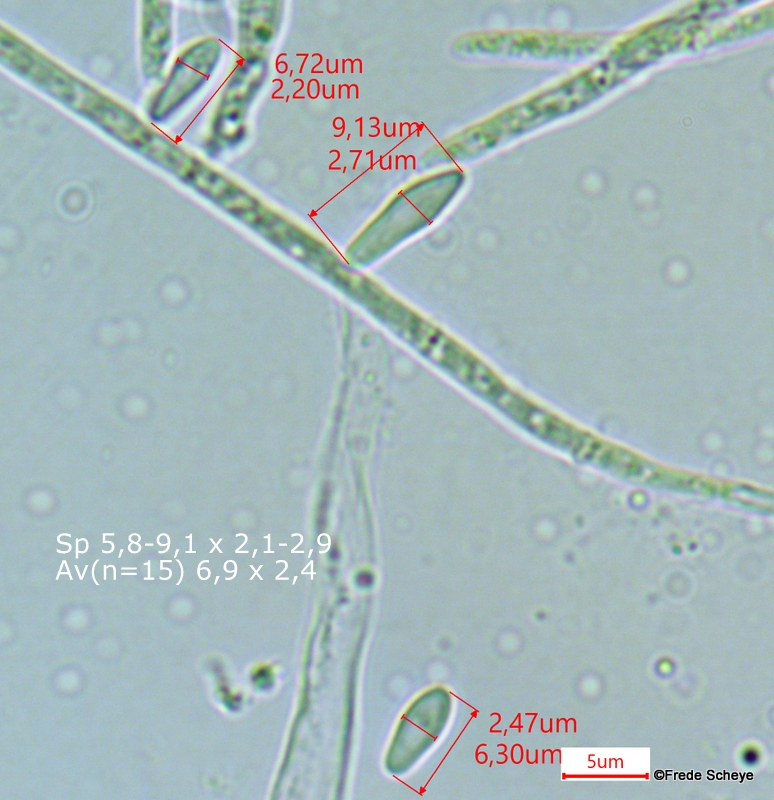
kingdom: Fungi
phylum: Ascomycota
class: Leotiomycetes
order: Helotiales
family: Lachnaceae
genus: Lachnellula
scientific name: Lachnellula subtilissima
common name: gran-frynseskive
